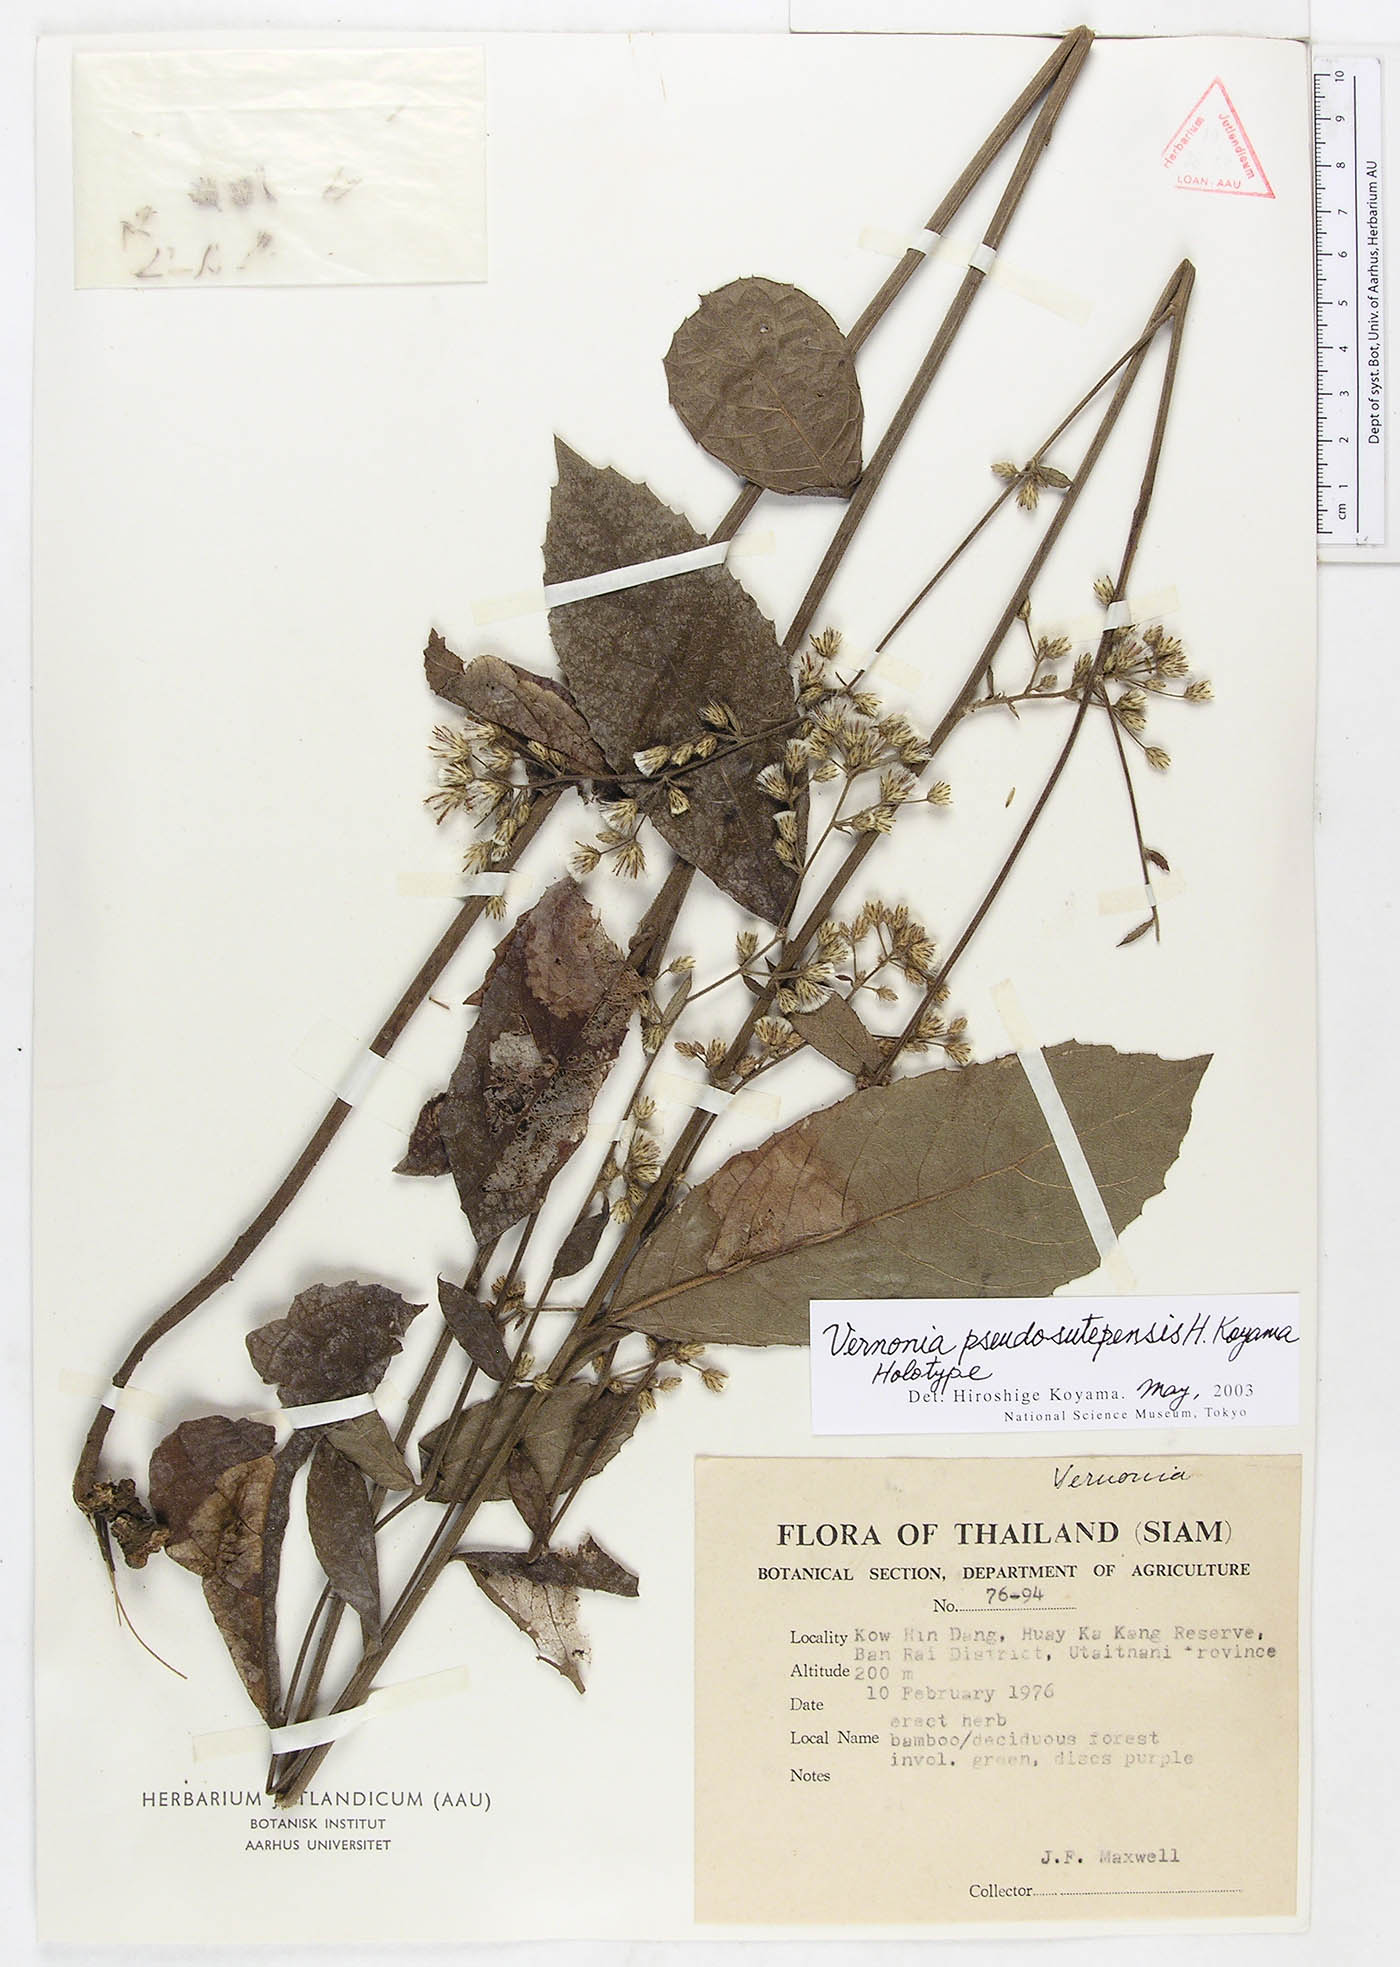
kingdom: Plantae
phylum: Tracheophyta
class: Magnoliopsida
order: Asterales
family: Asteraceae
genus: Acilepis
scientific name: Acilepis pseudosutepensis
